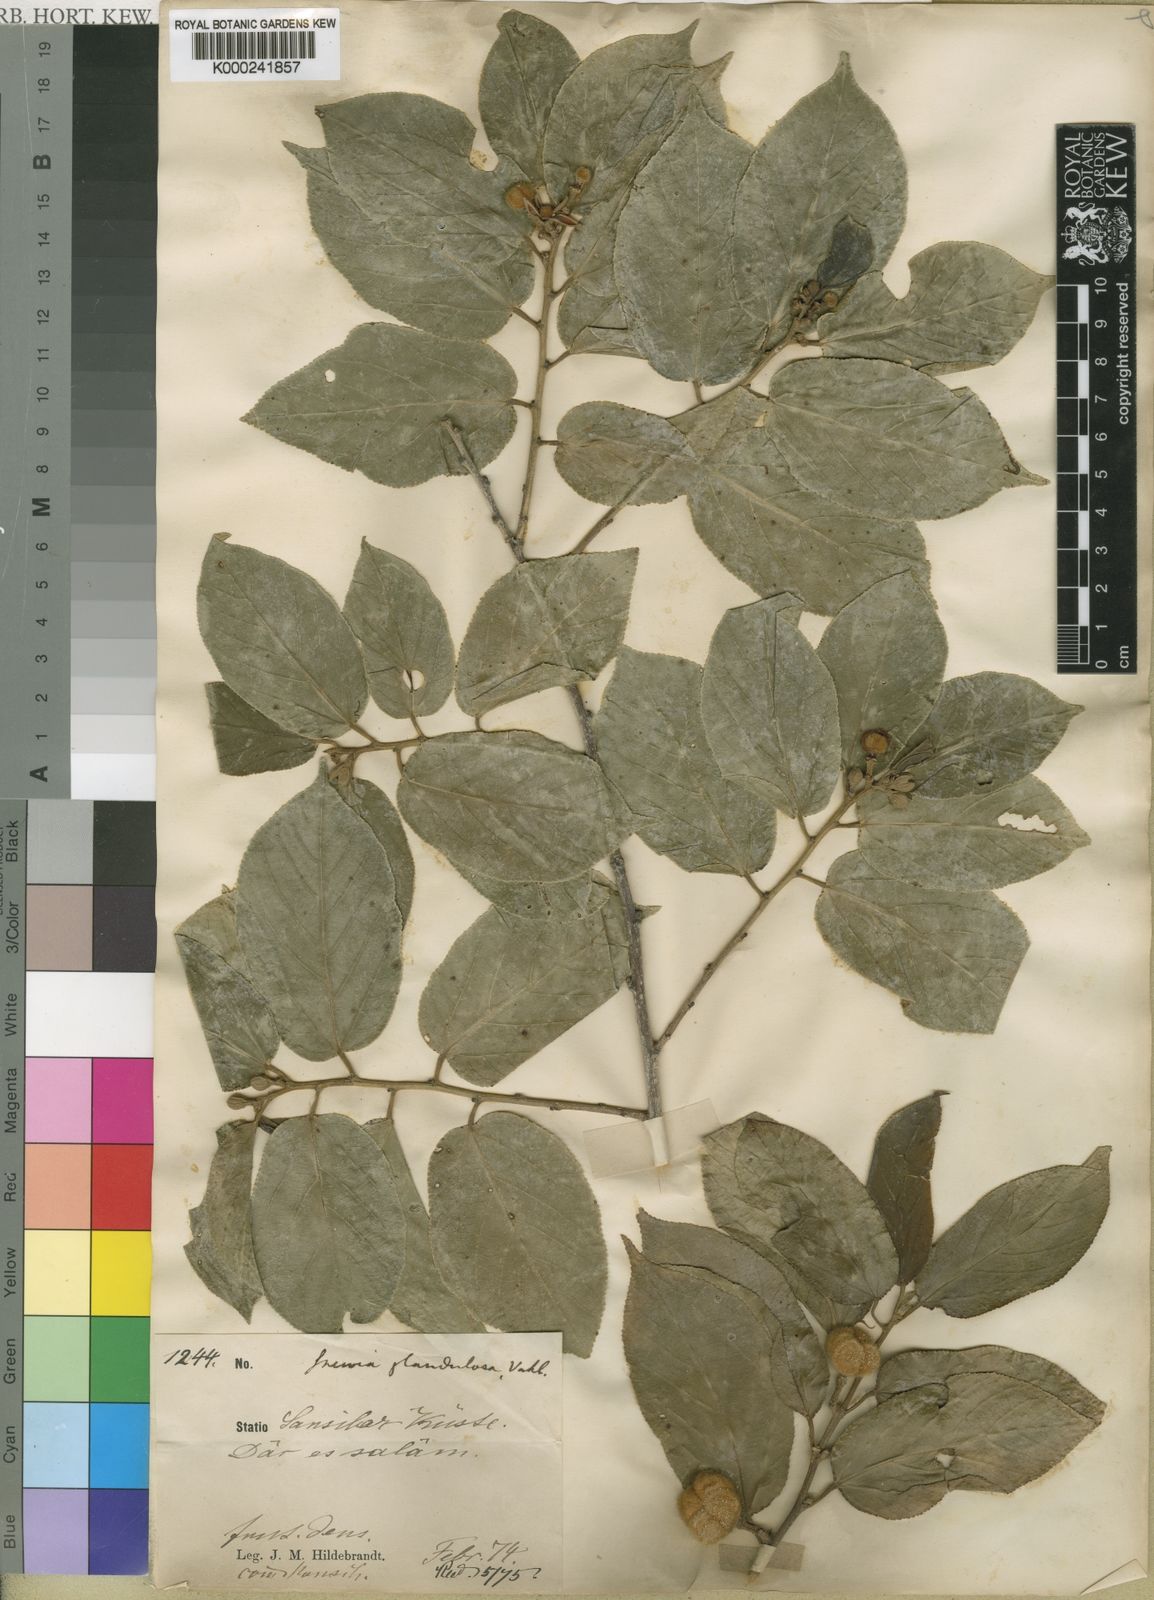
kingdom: Plantae
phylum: Tracheophyta
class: Magnoliopsida
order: Malvales
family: Malvaceae
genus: Grewia
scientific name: Grewia glandulosa
